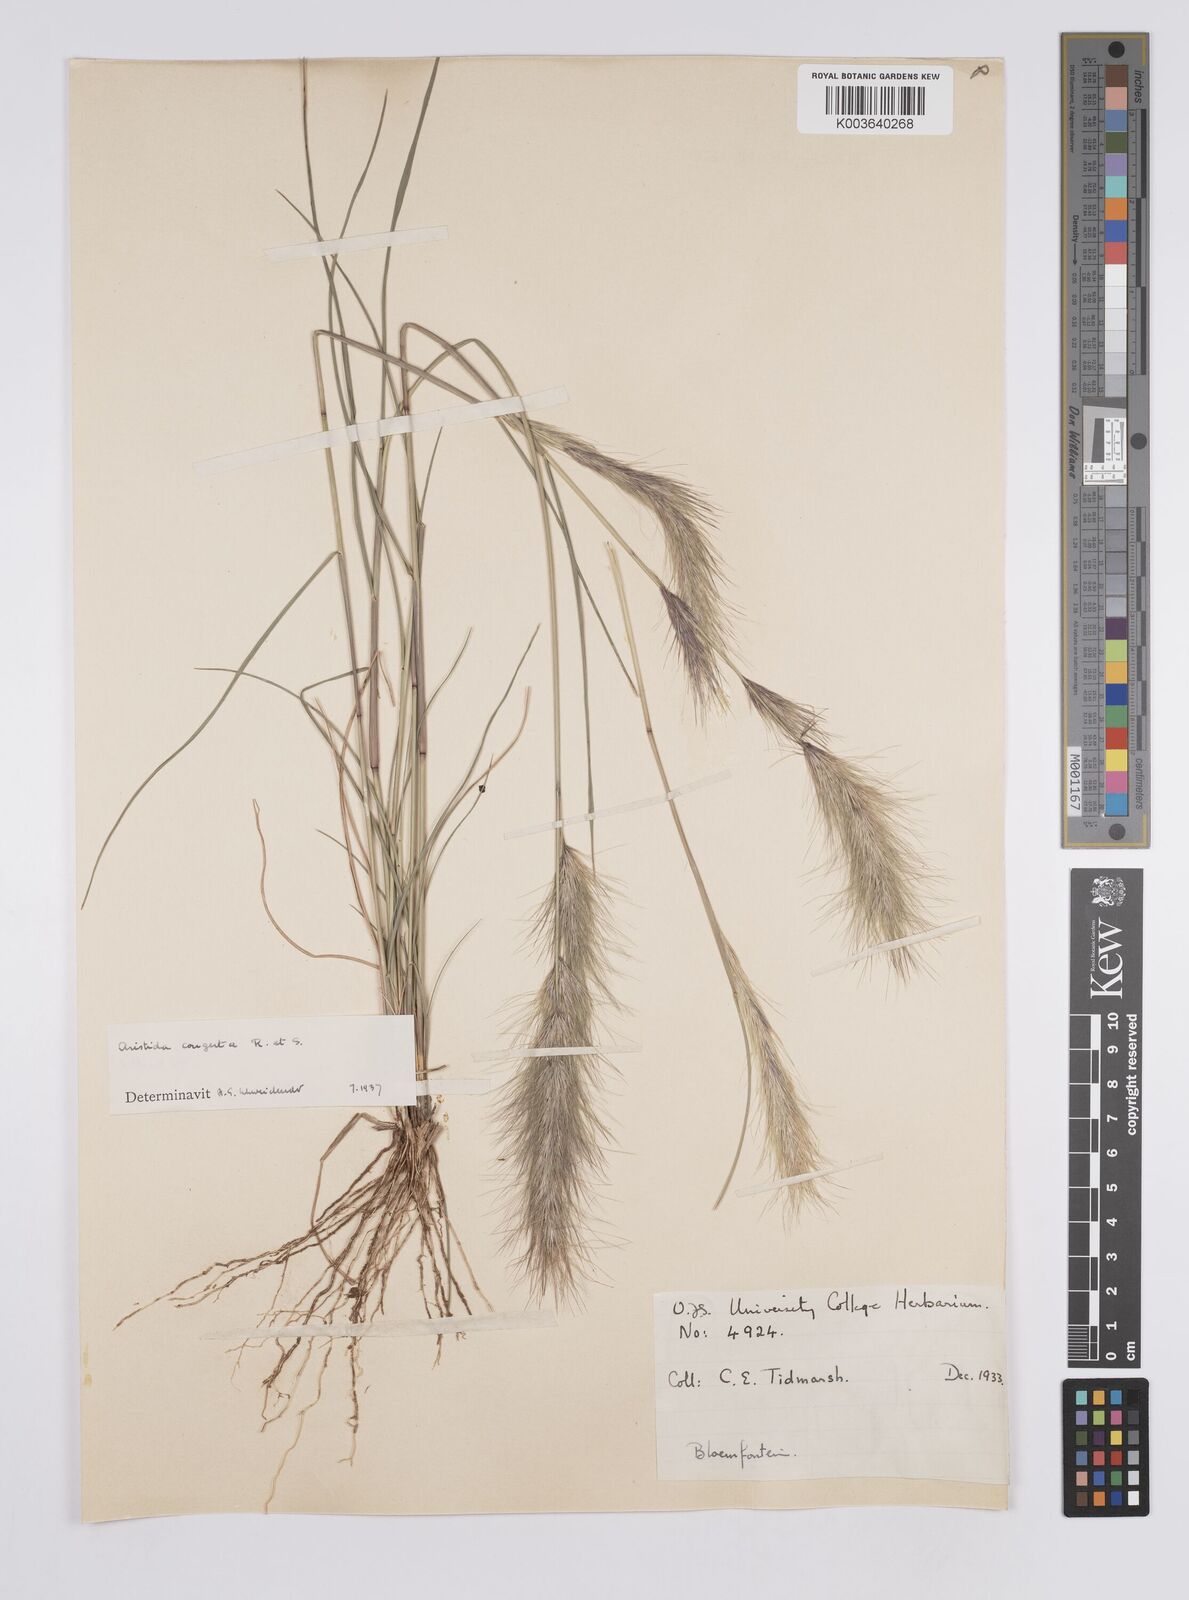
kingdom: Plantae
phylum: Tracheophyta
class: Liliopsida
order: Poales
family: Poaceae
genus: Aristida
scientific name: Aristida congesta
